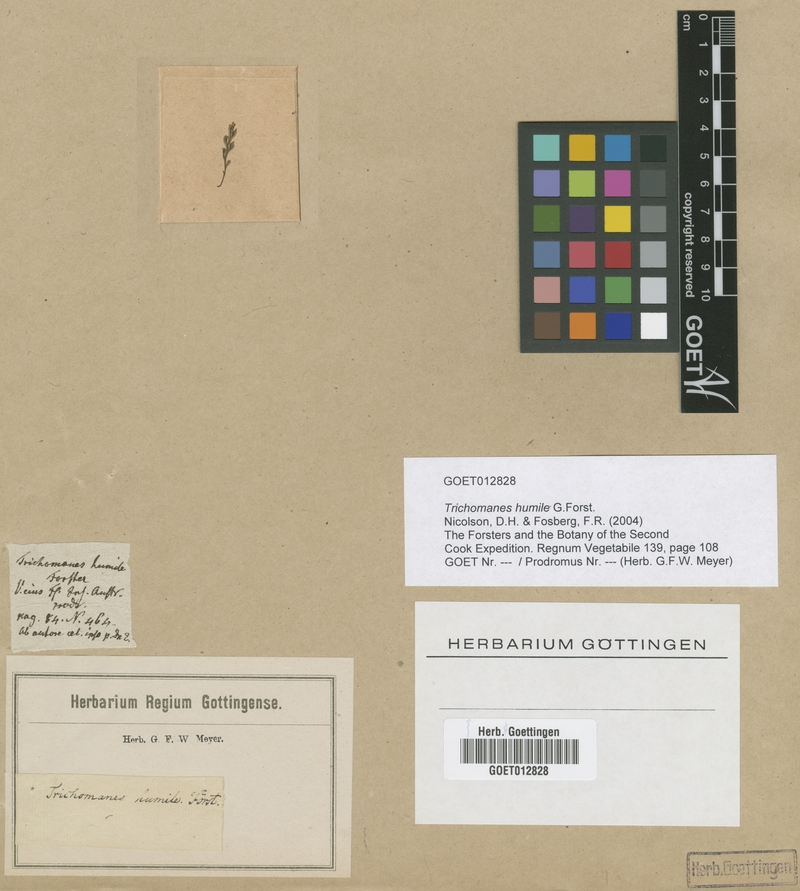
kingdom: Plantae
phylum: Tracheophyta
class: Polypodiopsida
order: Hymenophyllales
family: Hymenophyllaceae
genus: Crepidomanes
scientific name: Crepidomanes humile
